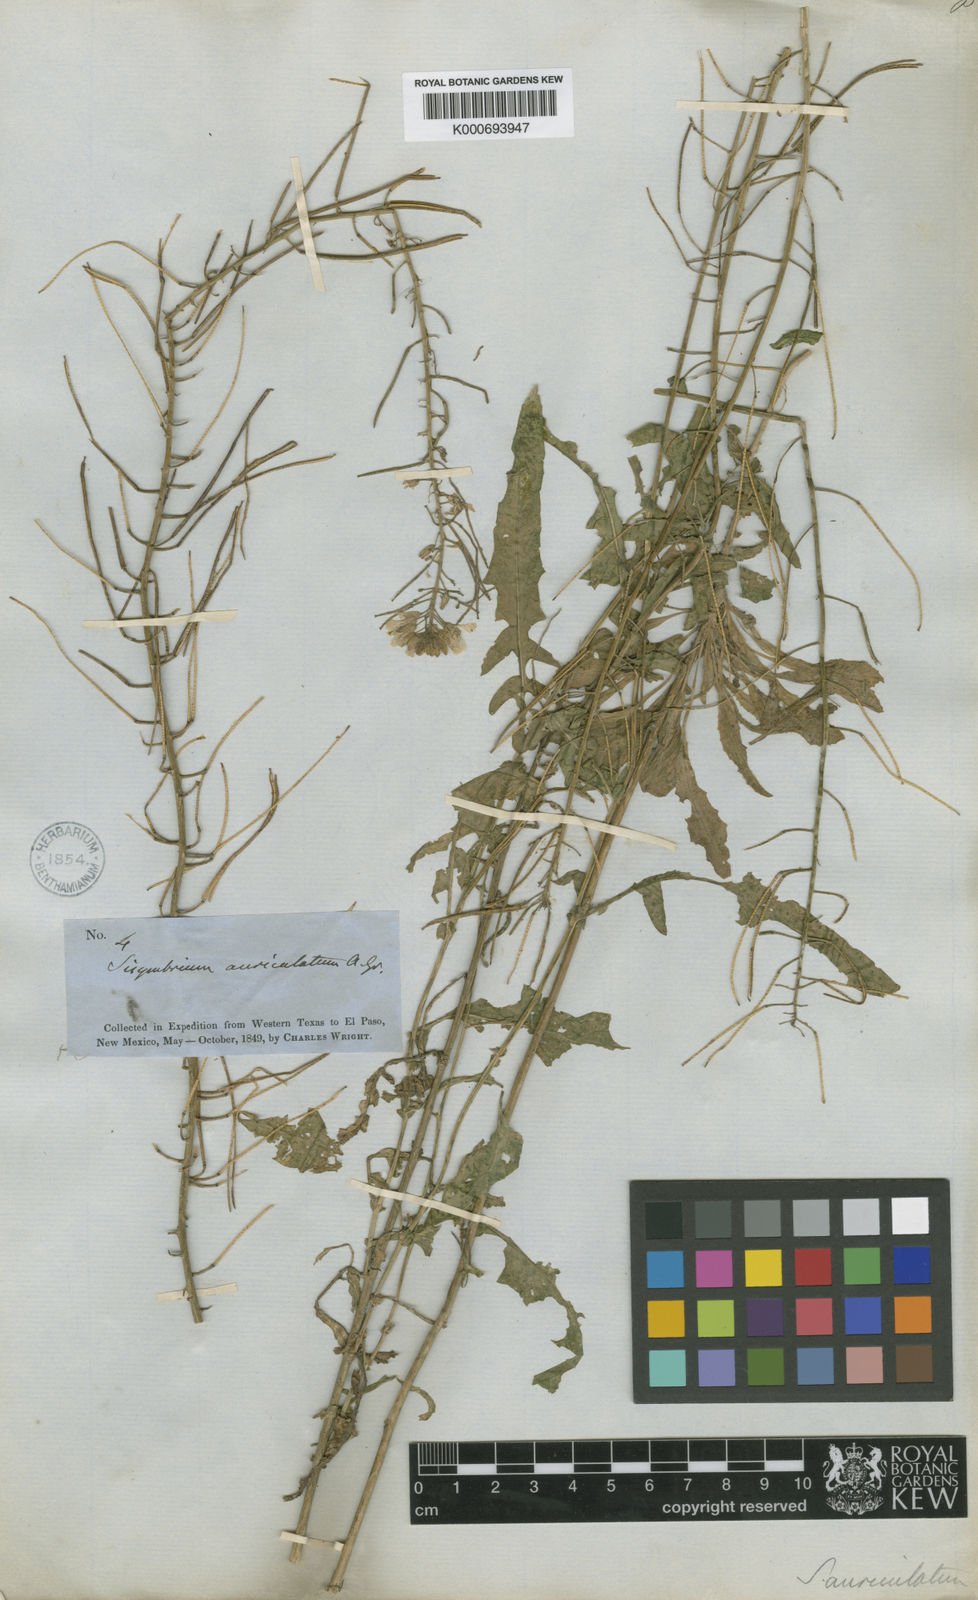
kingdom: Plantae
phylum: Tracheophyta
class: Magnoliopsida
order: Brassicales
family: Brassicaceae
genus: Dryopetalon
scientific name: Dryopetalon auriculatum
